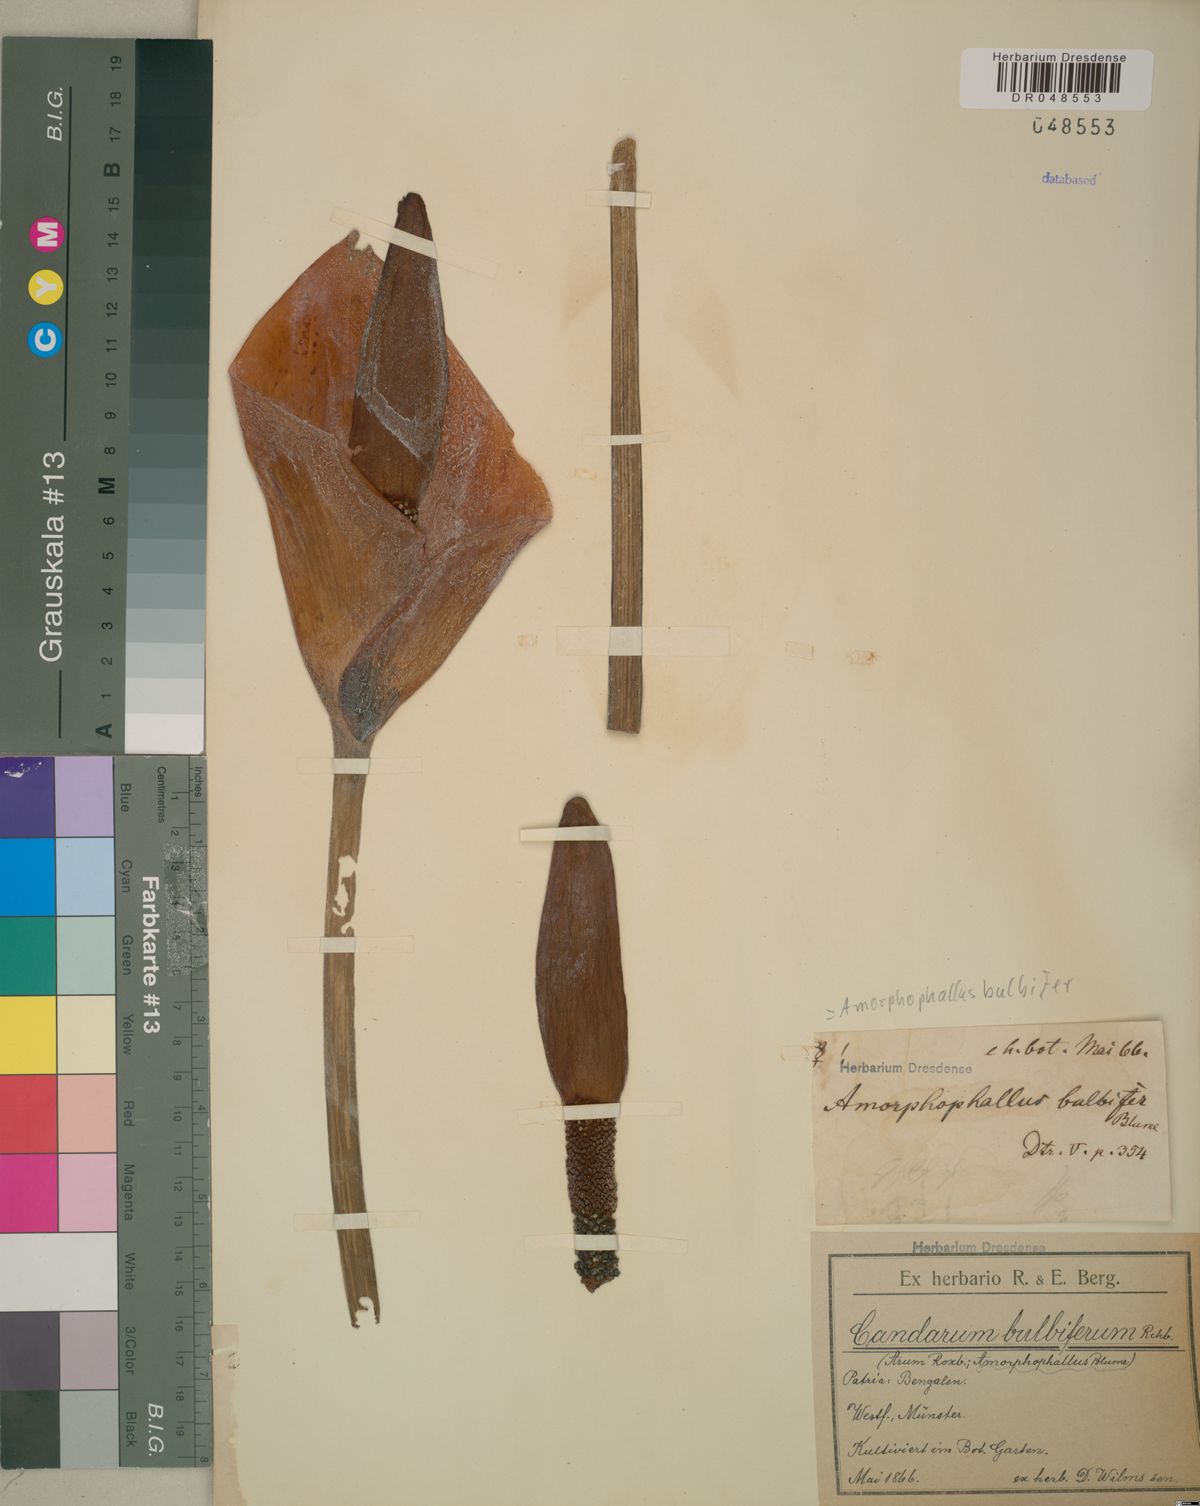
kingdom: Plantae
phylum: Tracheophyta
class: Liliopsida
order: Alismatales
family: Araceae
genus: Amorphophallus
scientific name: Amorphophallus bulbifer
